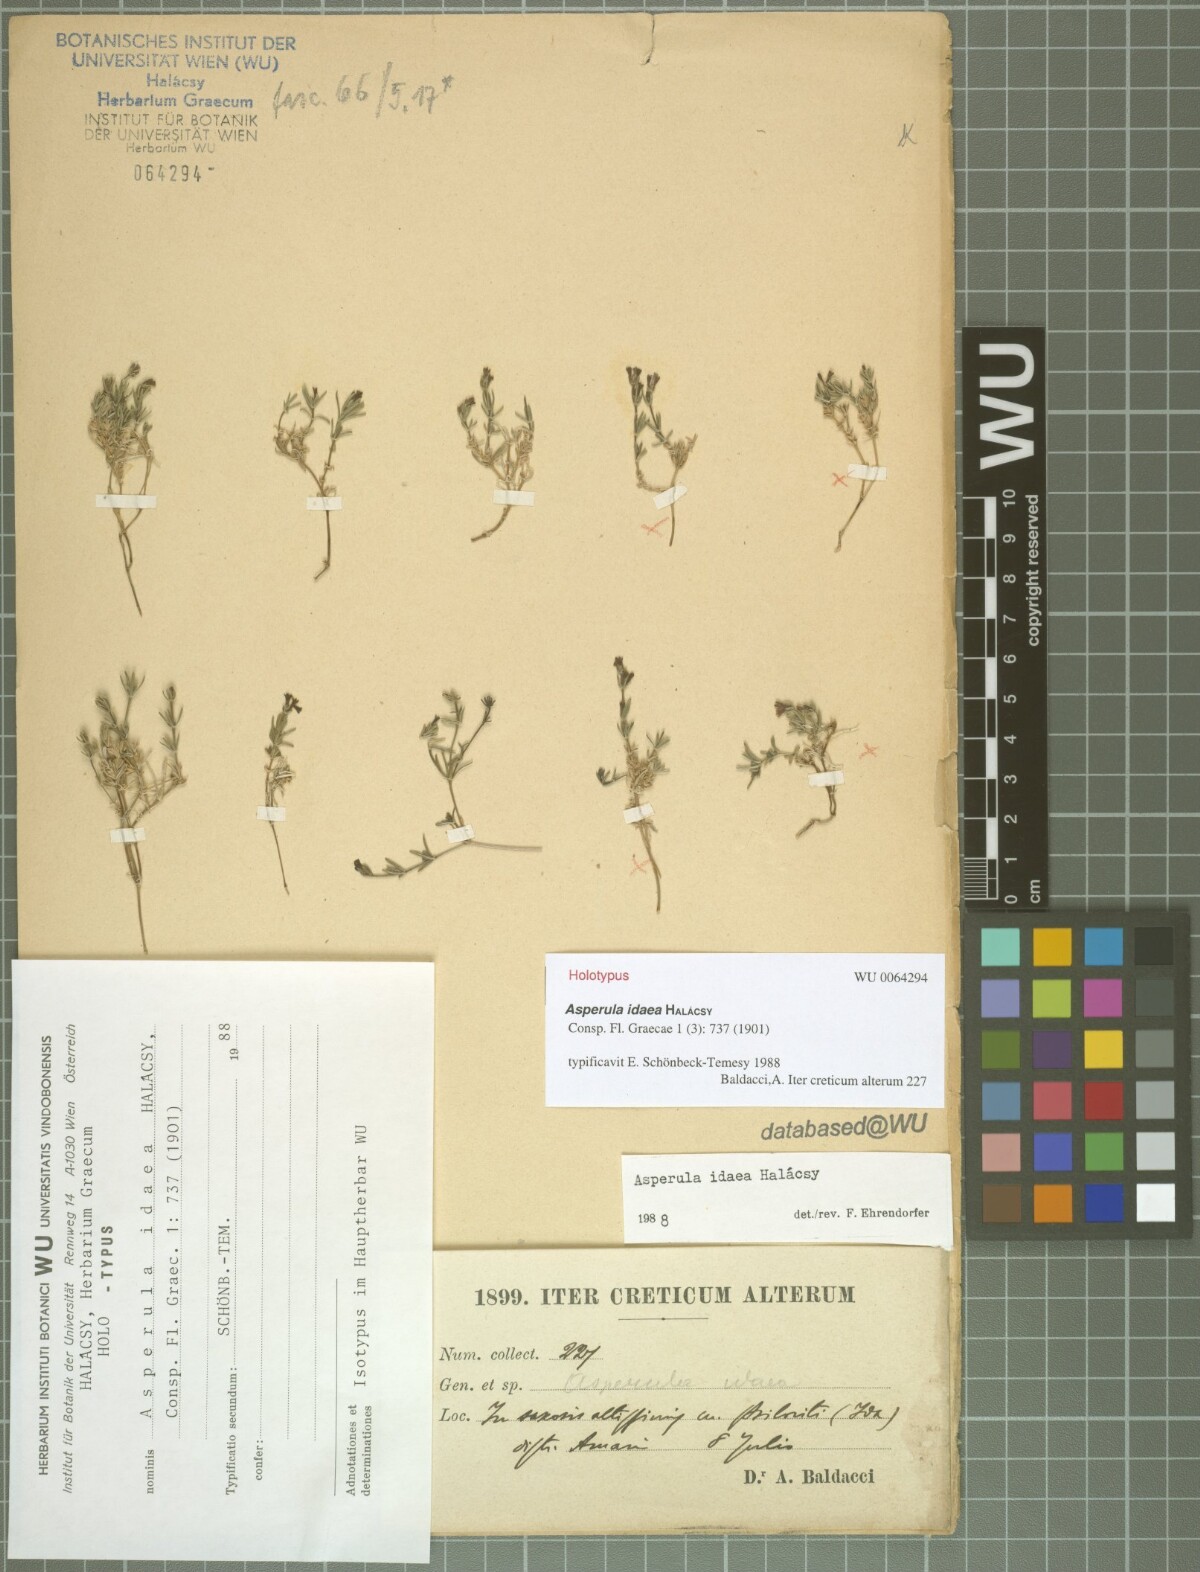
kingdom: Plantae
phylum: Tracheophyta
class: Magnoliopsida
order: Gentianales
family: Rubiaceae
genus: Cynanchica
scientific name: Cynanchica idaea
